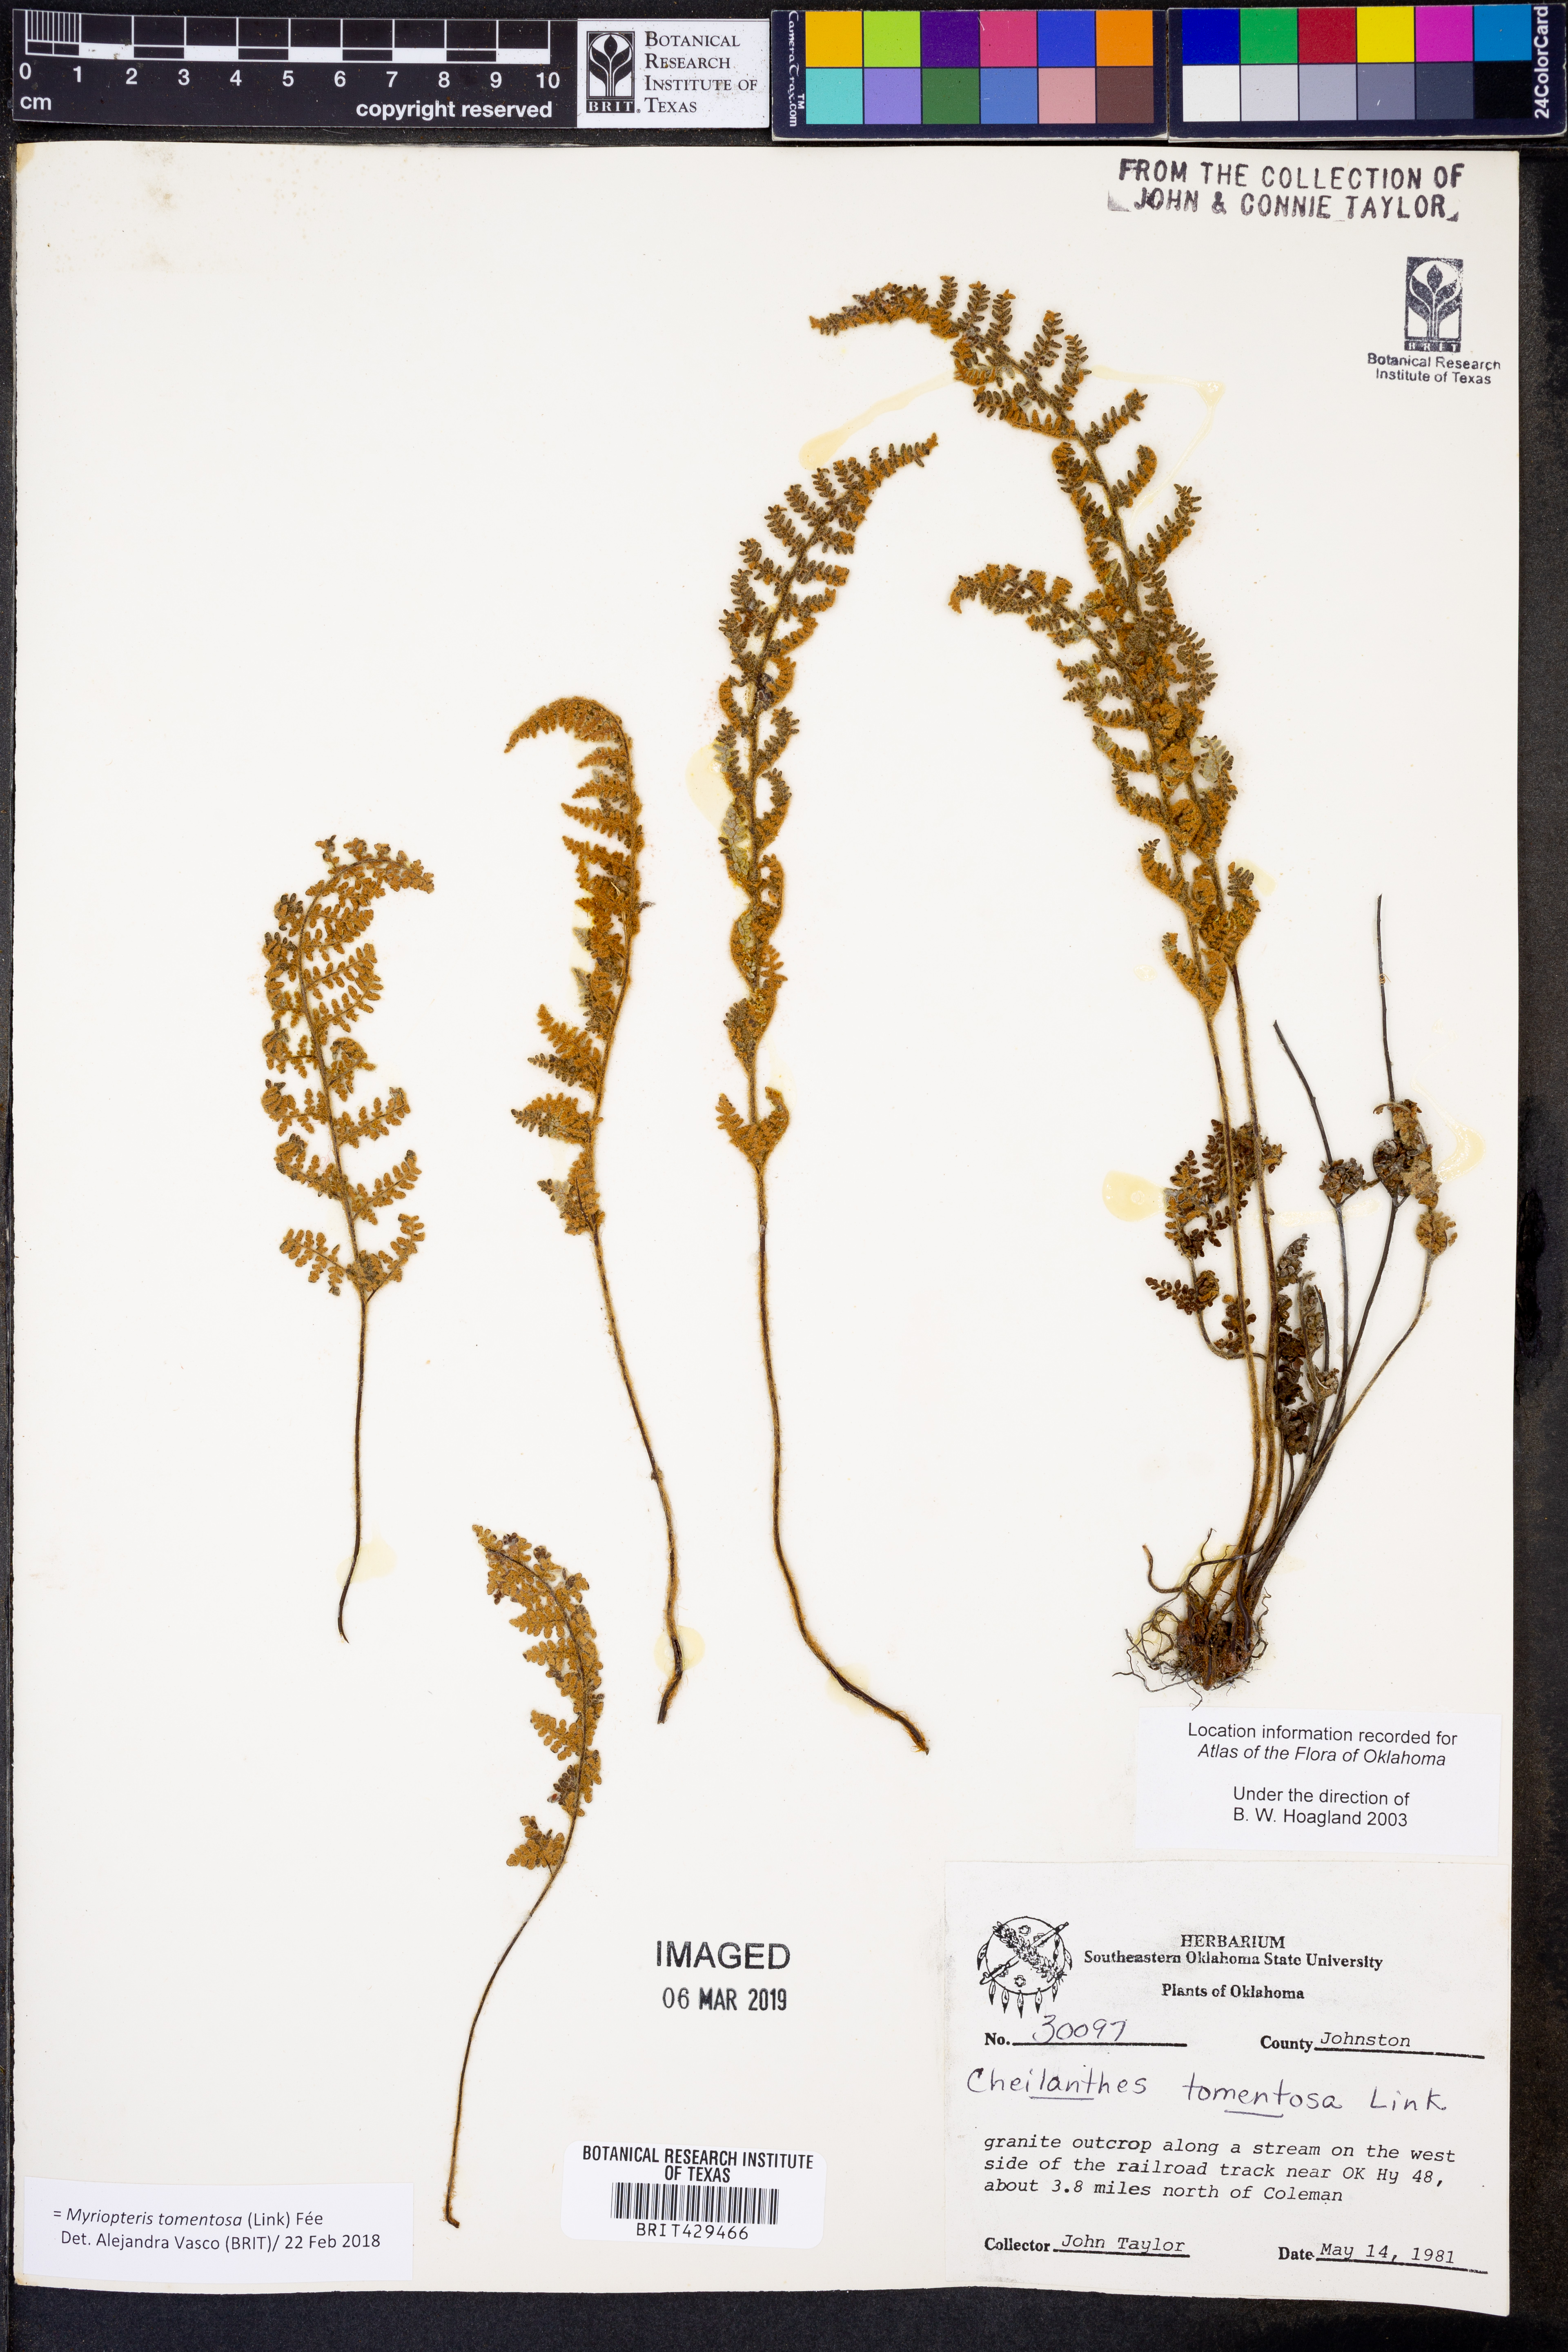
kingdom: Plantae
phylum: Tracheophyta
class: Polypodiopsida
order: Polypodiales
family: Pteridaceae
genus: Myriopteris
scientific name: Myriopteris tomentosa
